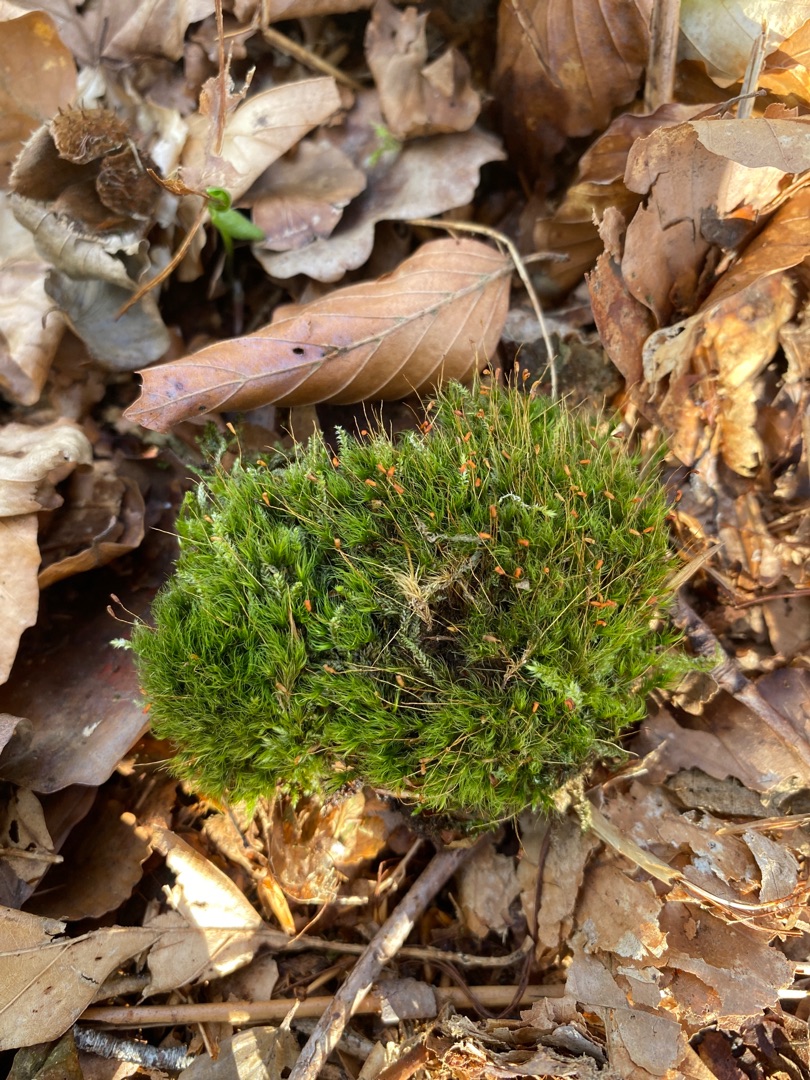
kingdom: Plantae
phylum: Bryophyta
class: Bryopsida
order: Dicranales
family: Dicranellaceae
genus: Dicranella
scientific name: Dicranella heteromalla
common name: Almindelig fløjlsmos
